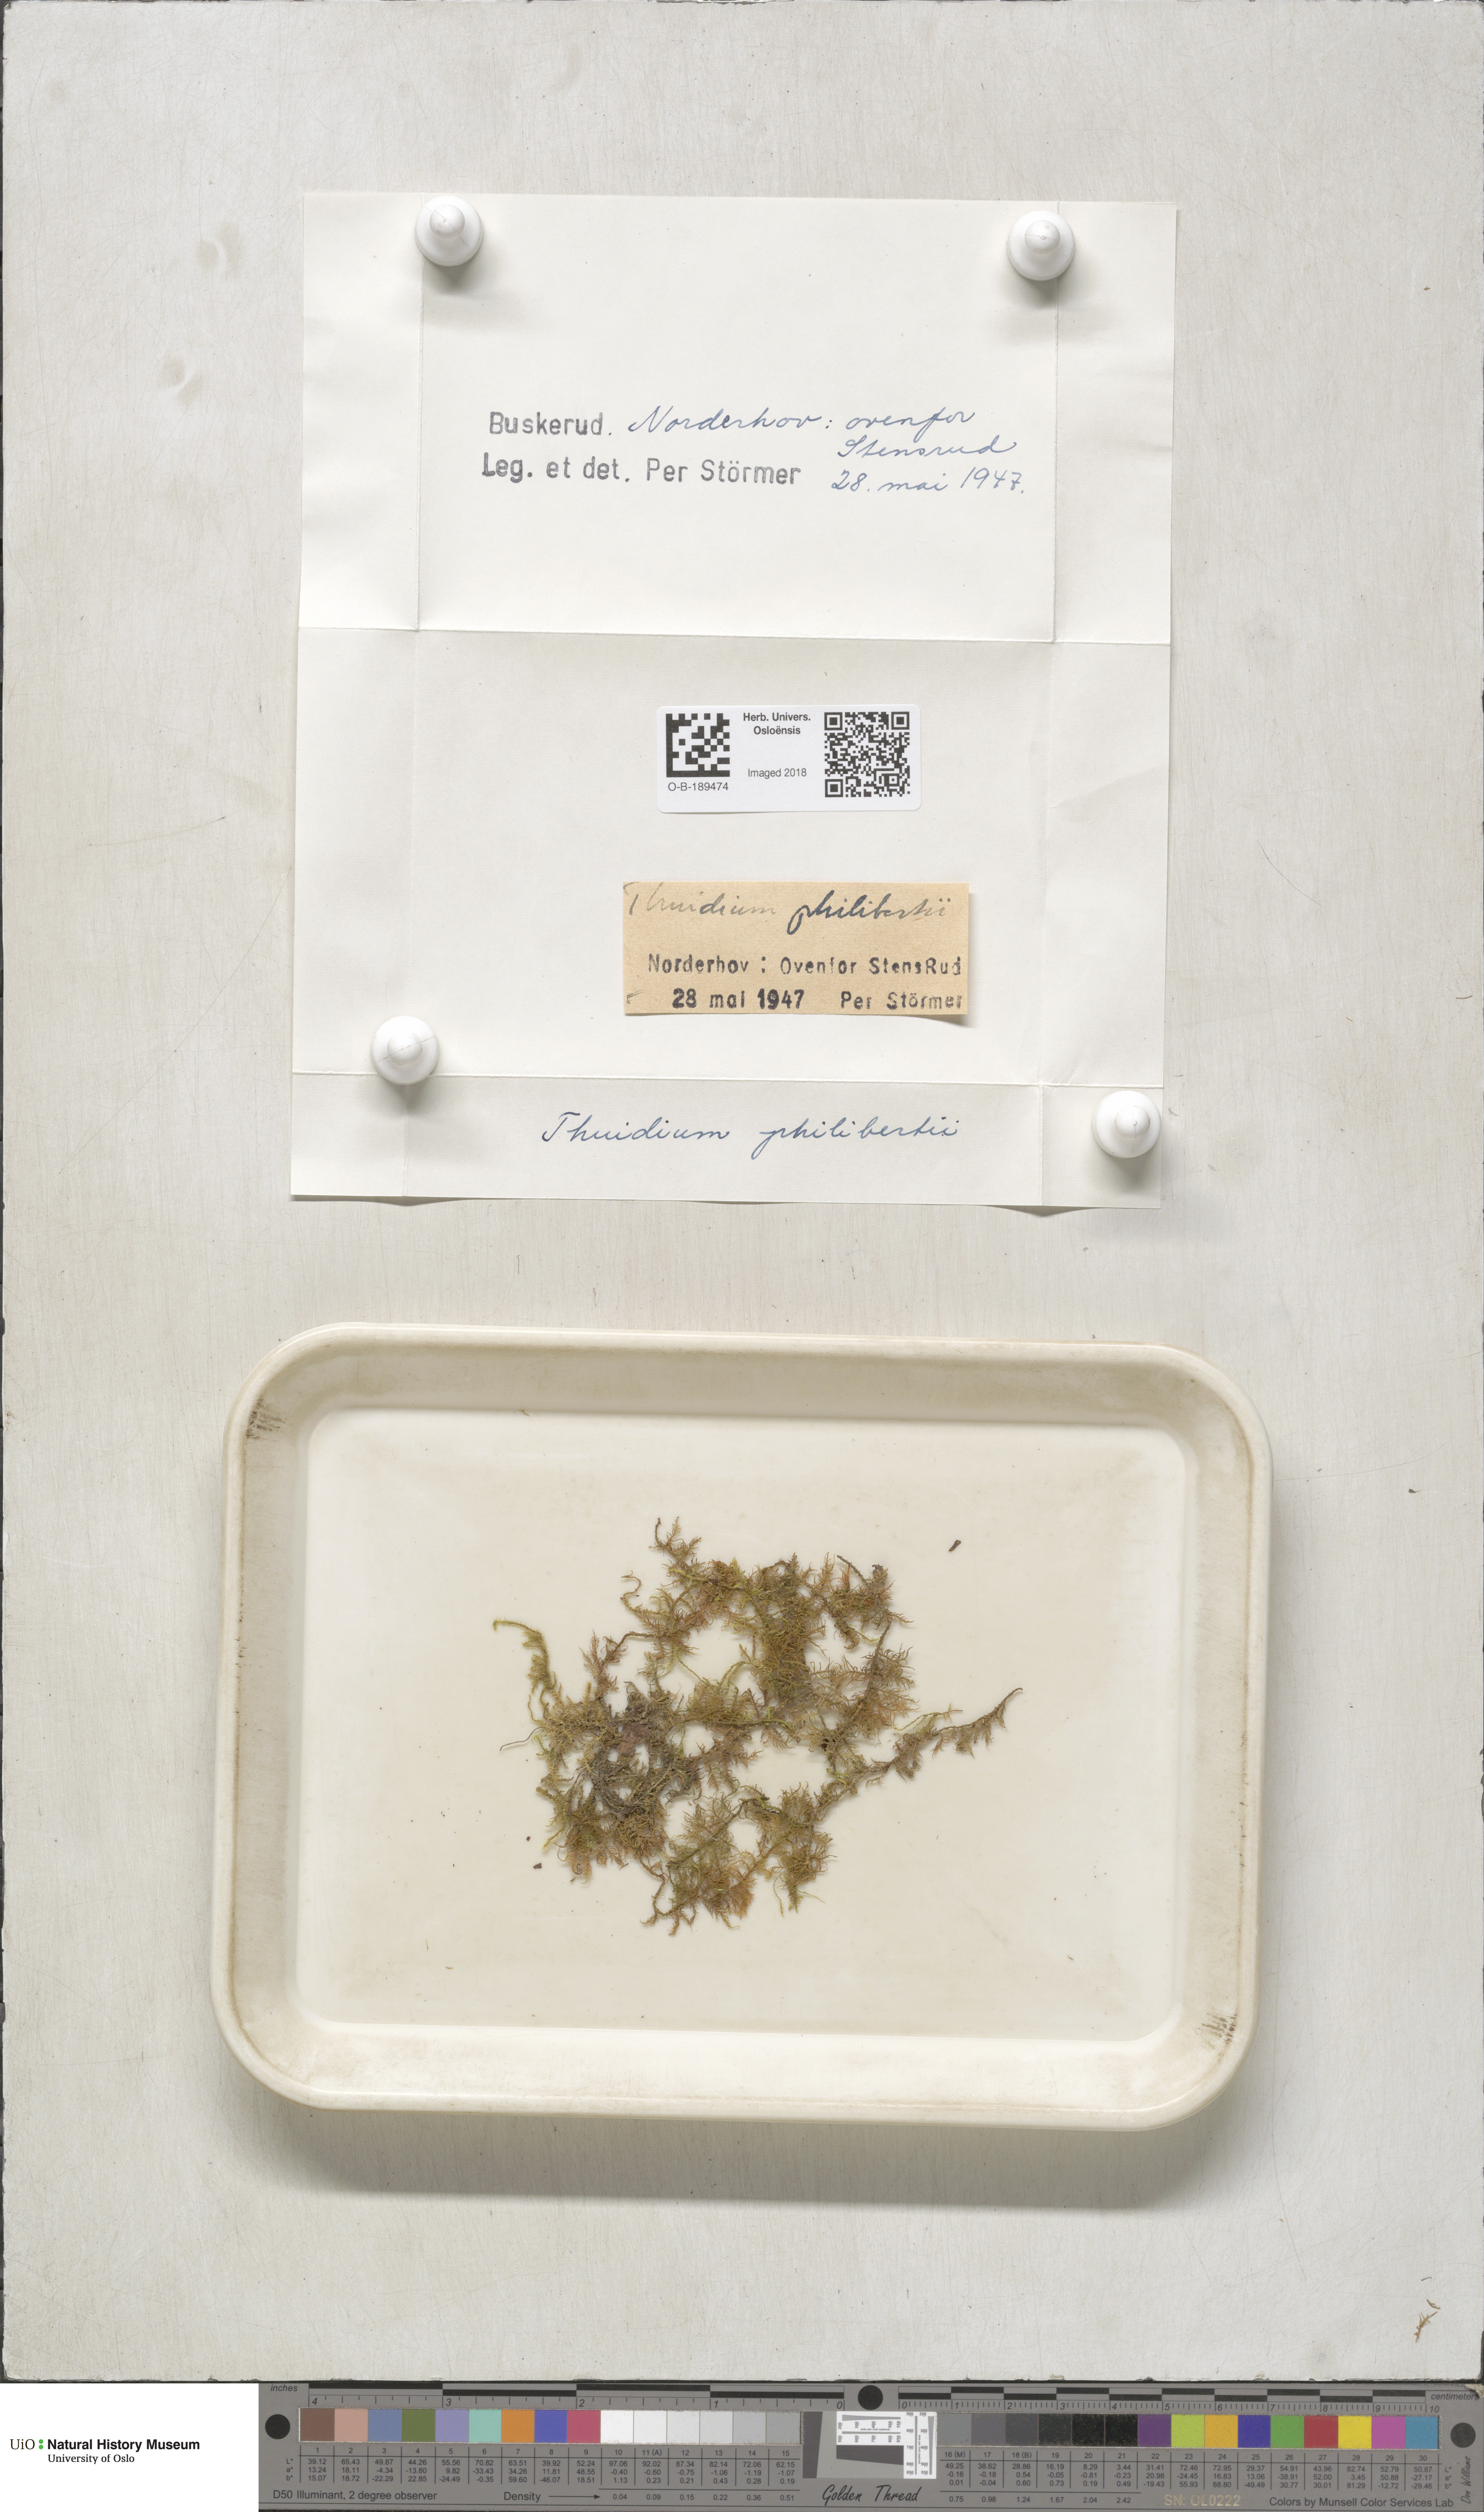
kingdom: Plantae
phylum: Bryophyta
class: Bryopsida
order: Hypnales
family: Thuidiaceae
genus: Thuidium
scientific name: Thuidium assimile
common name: Philibert's fern moss
